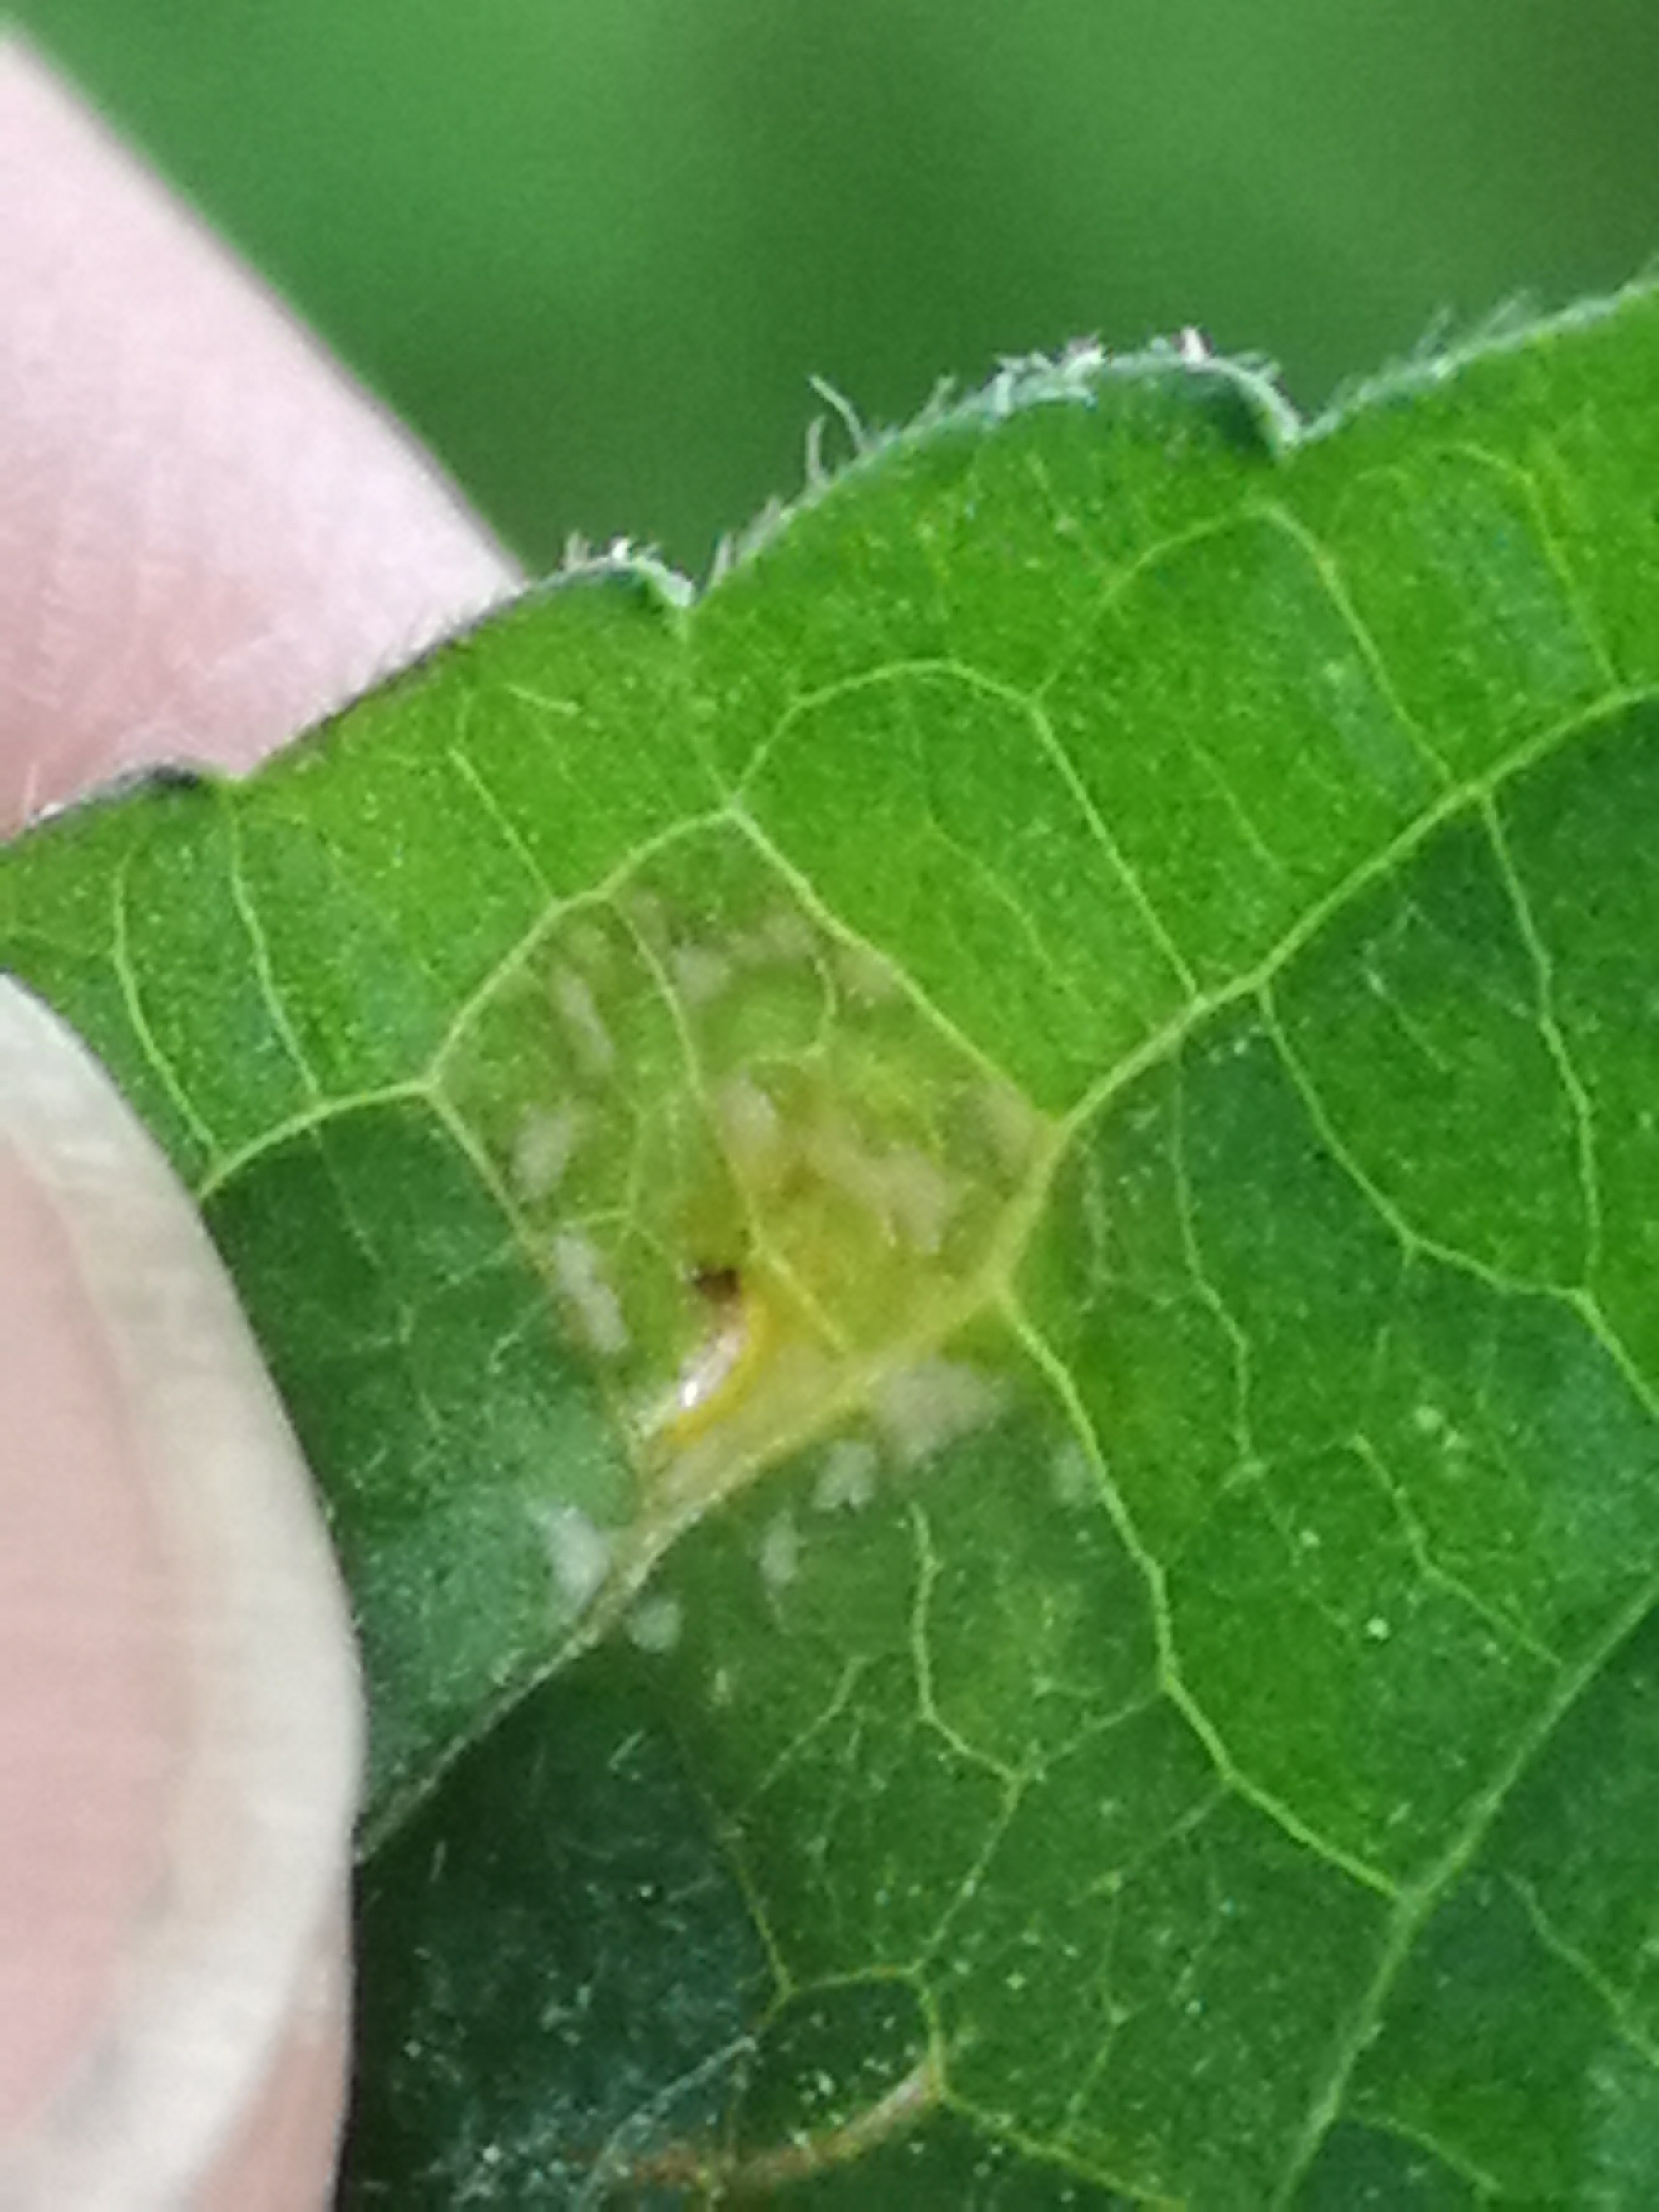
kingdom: Fungi
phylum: Basidiomycota
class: Pucciniomycetes
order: Pucciniales
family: Melampsoraceae
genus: Melampsora
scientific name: Melampsora populnea
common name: poppel-skorperust
